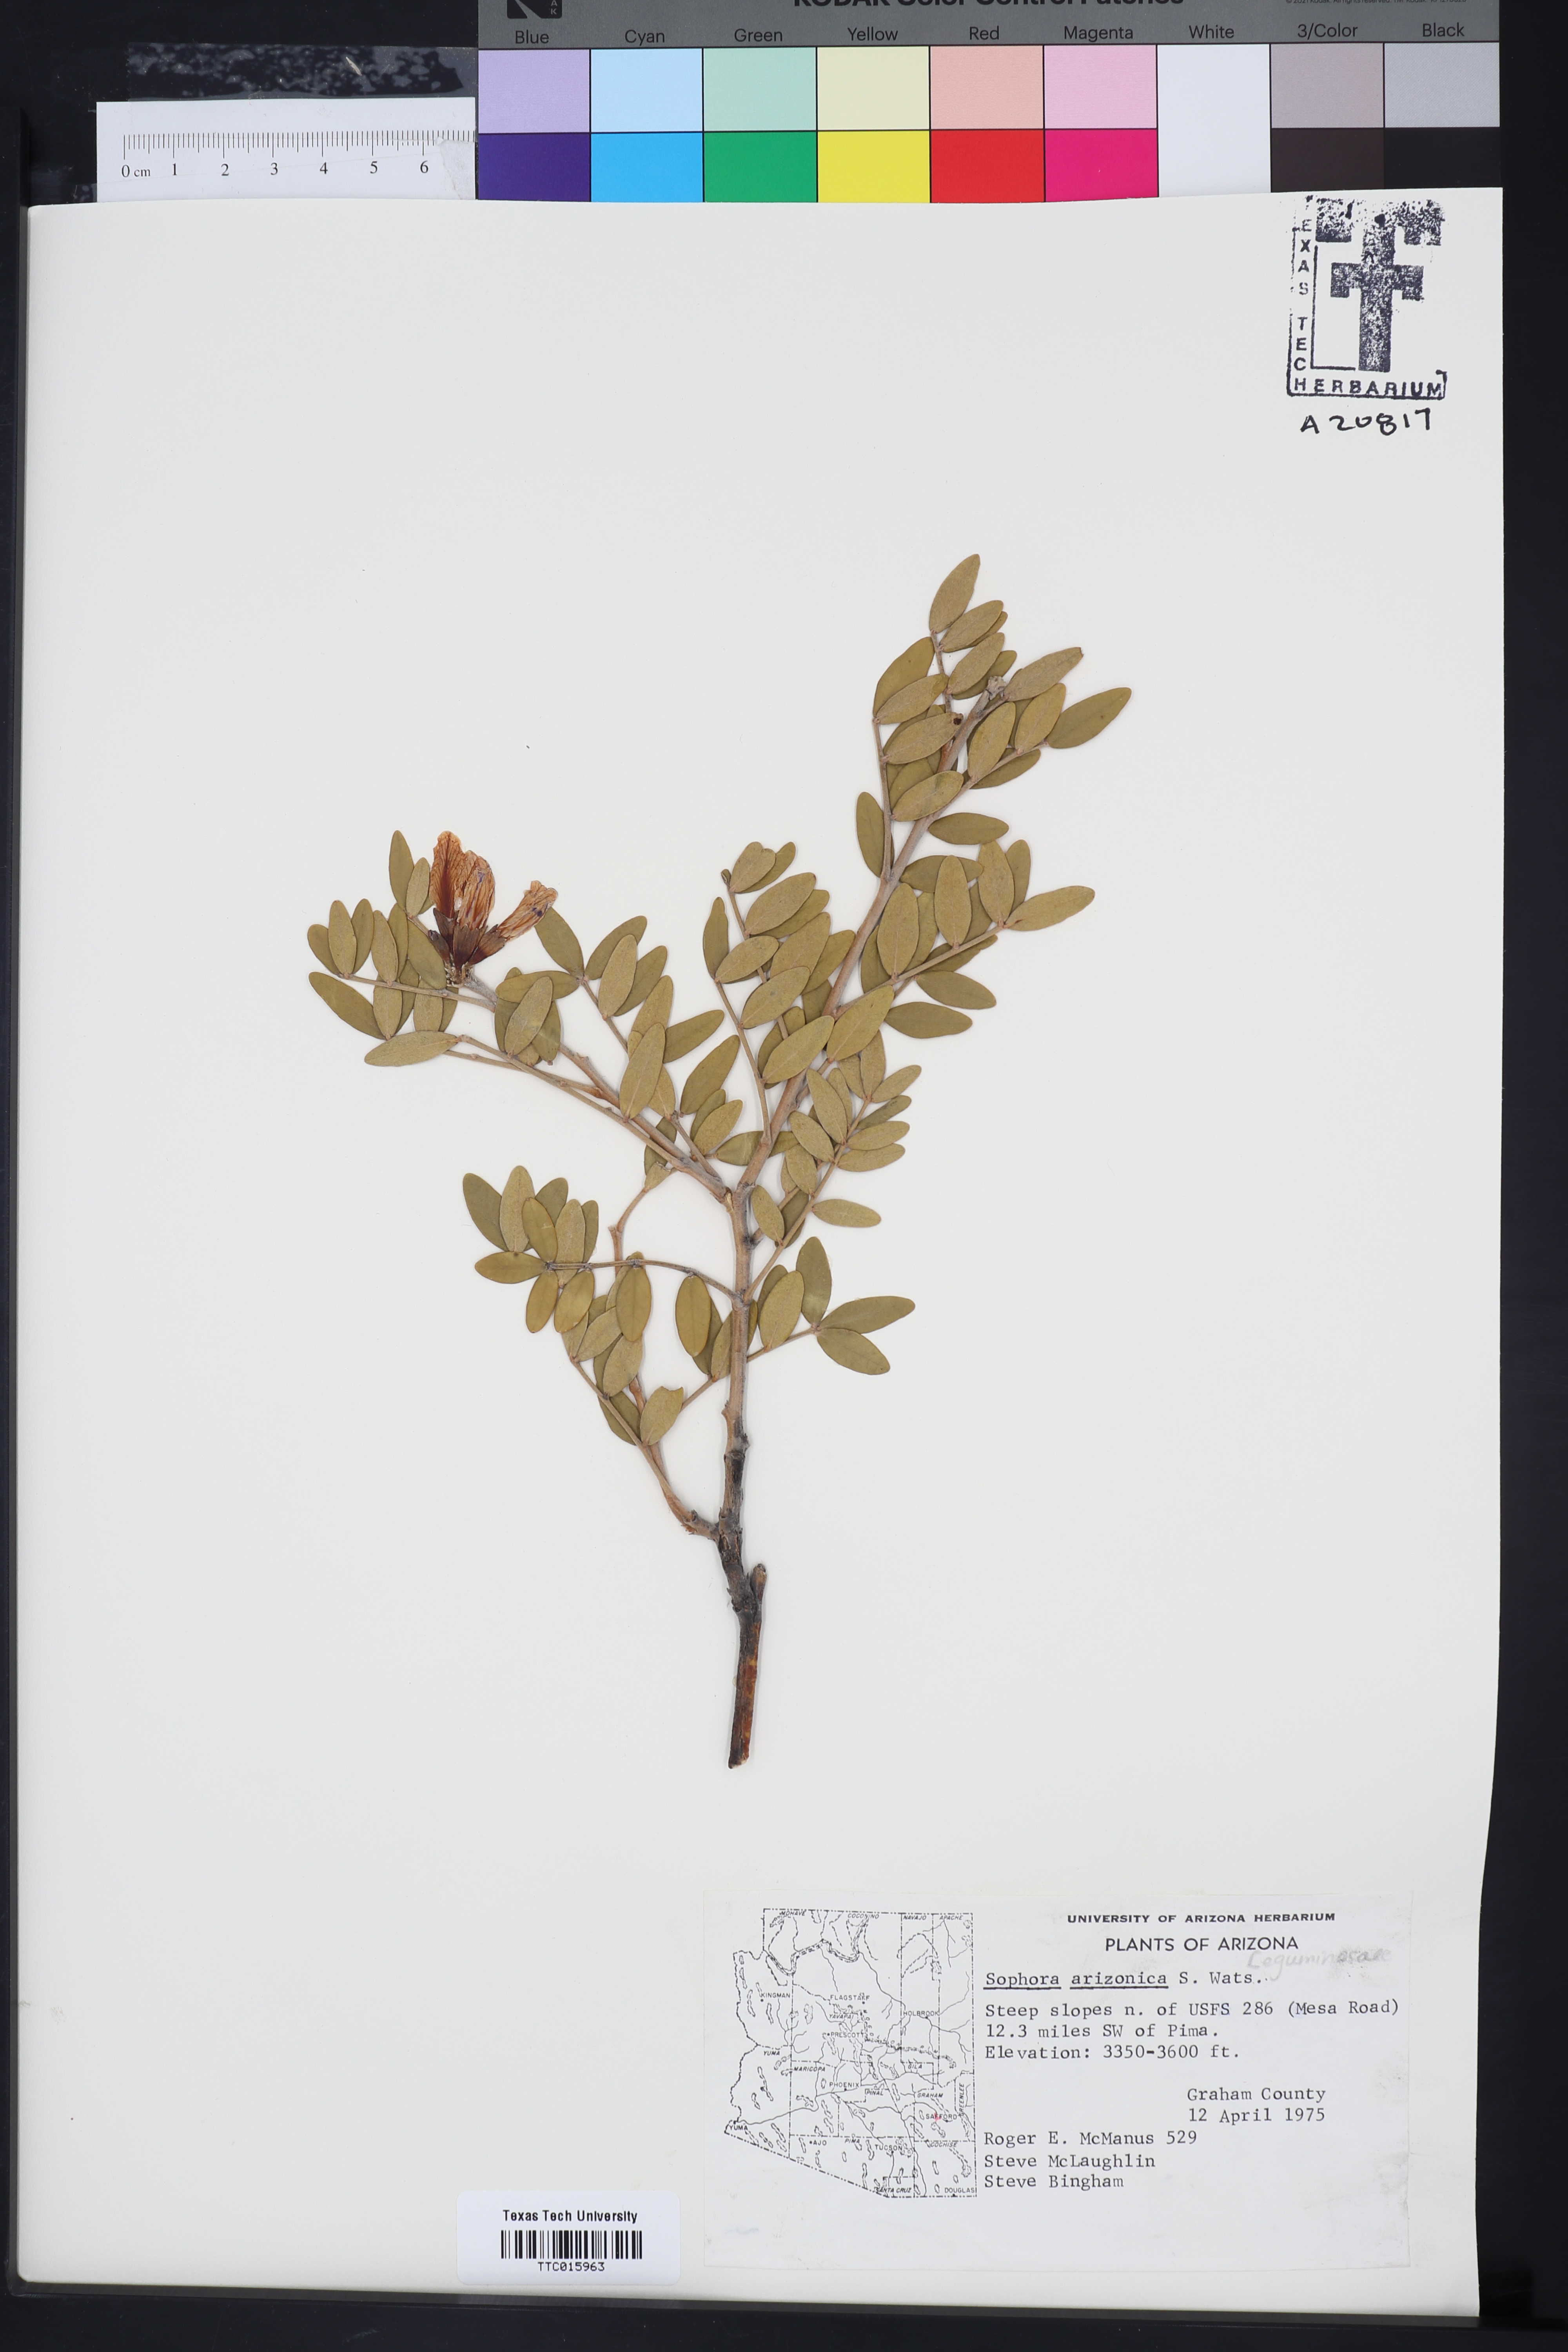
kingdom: Plantae
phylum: Tracheophyta
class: Magnoliopsida
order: Fabales
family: Fabaceae
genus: Dermatophyllum
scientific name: Dermatophyllum arizonicum
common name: Arizona necklace
